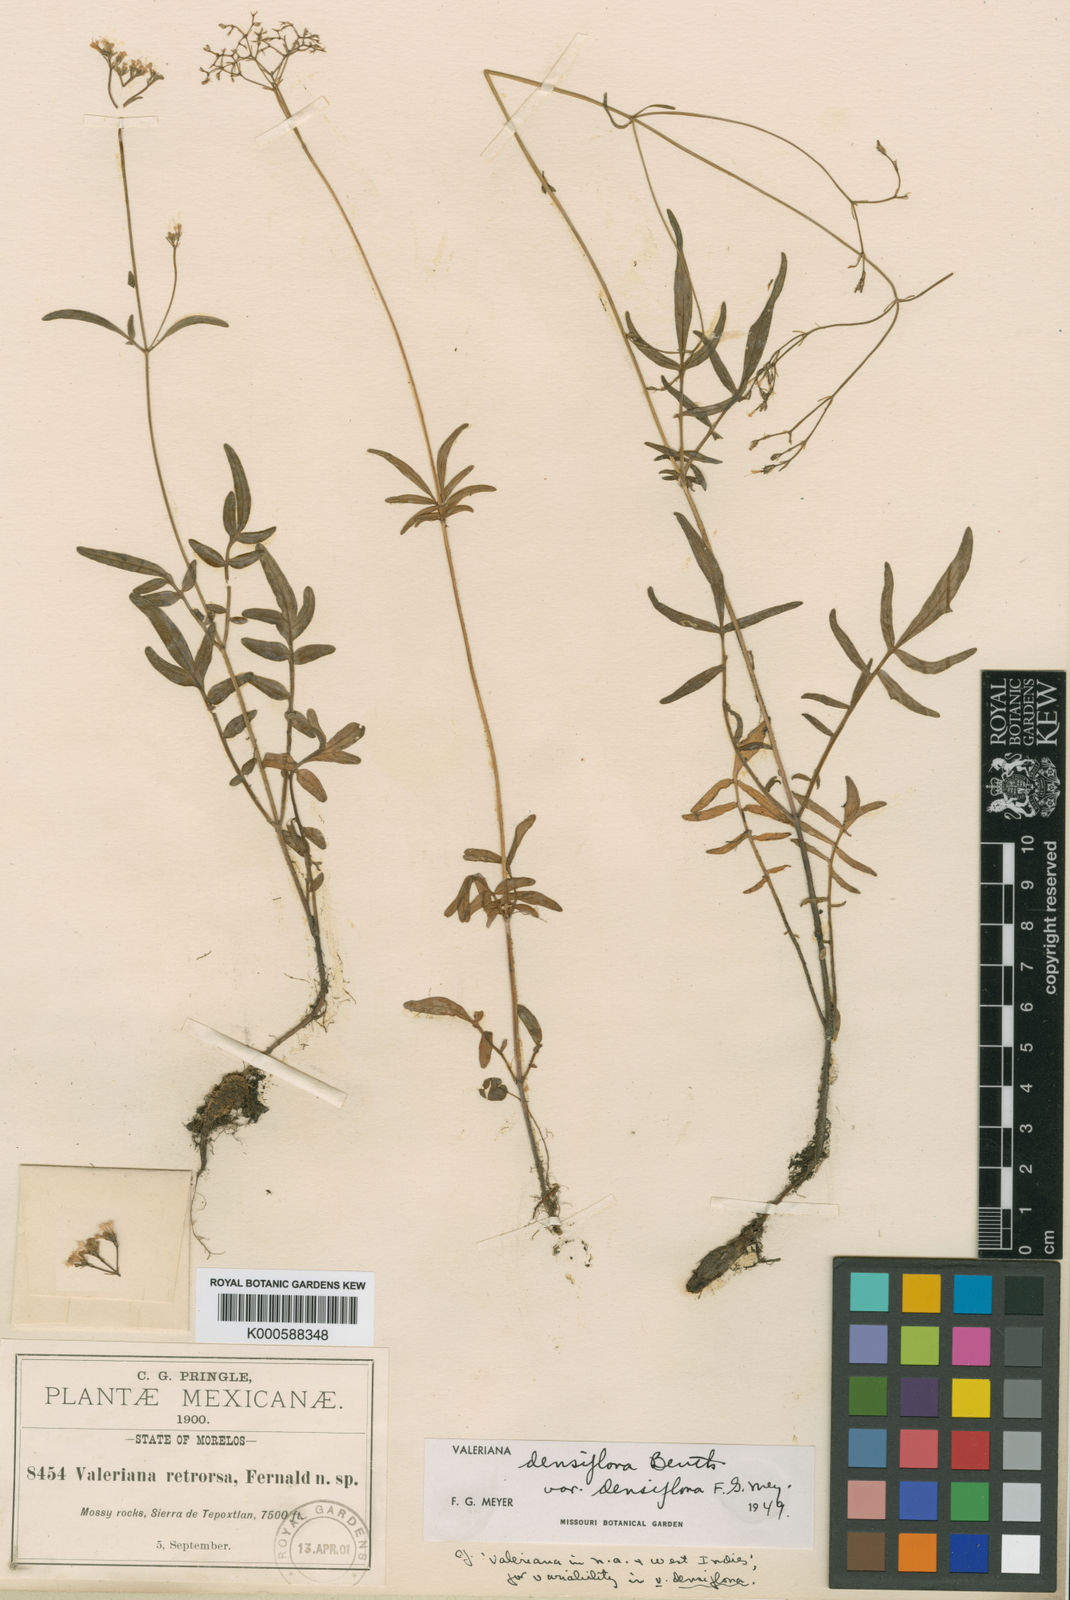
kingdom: Plantae
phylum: Tracheophyta
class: Magnoliopsida
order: Dipsacales
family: Caprifoliaceae
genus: Valeriana
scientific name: Valeriana densiflora
